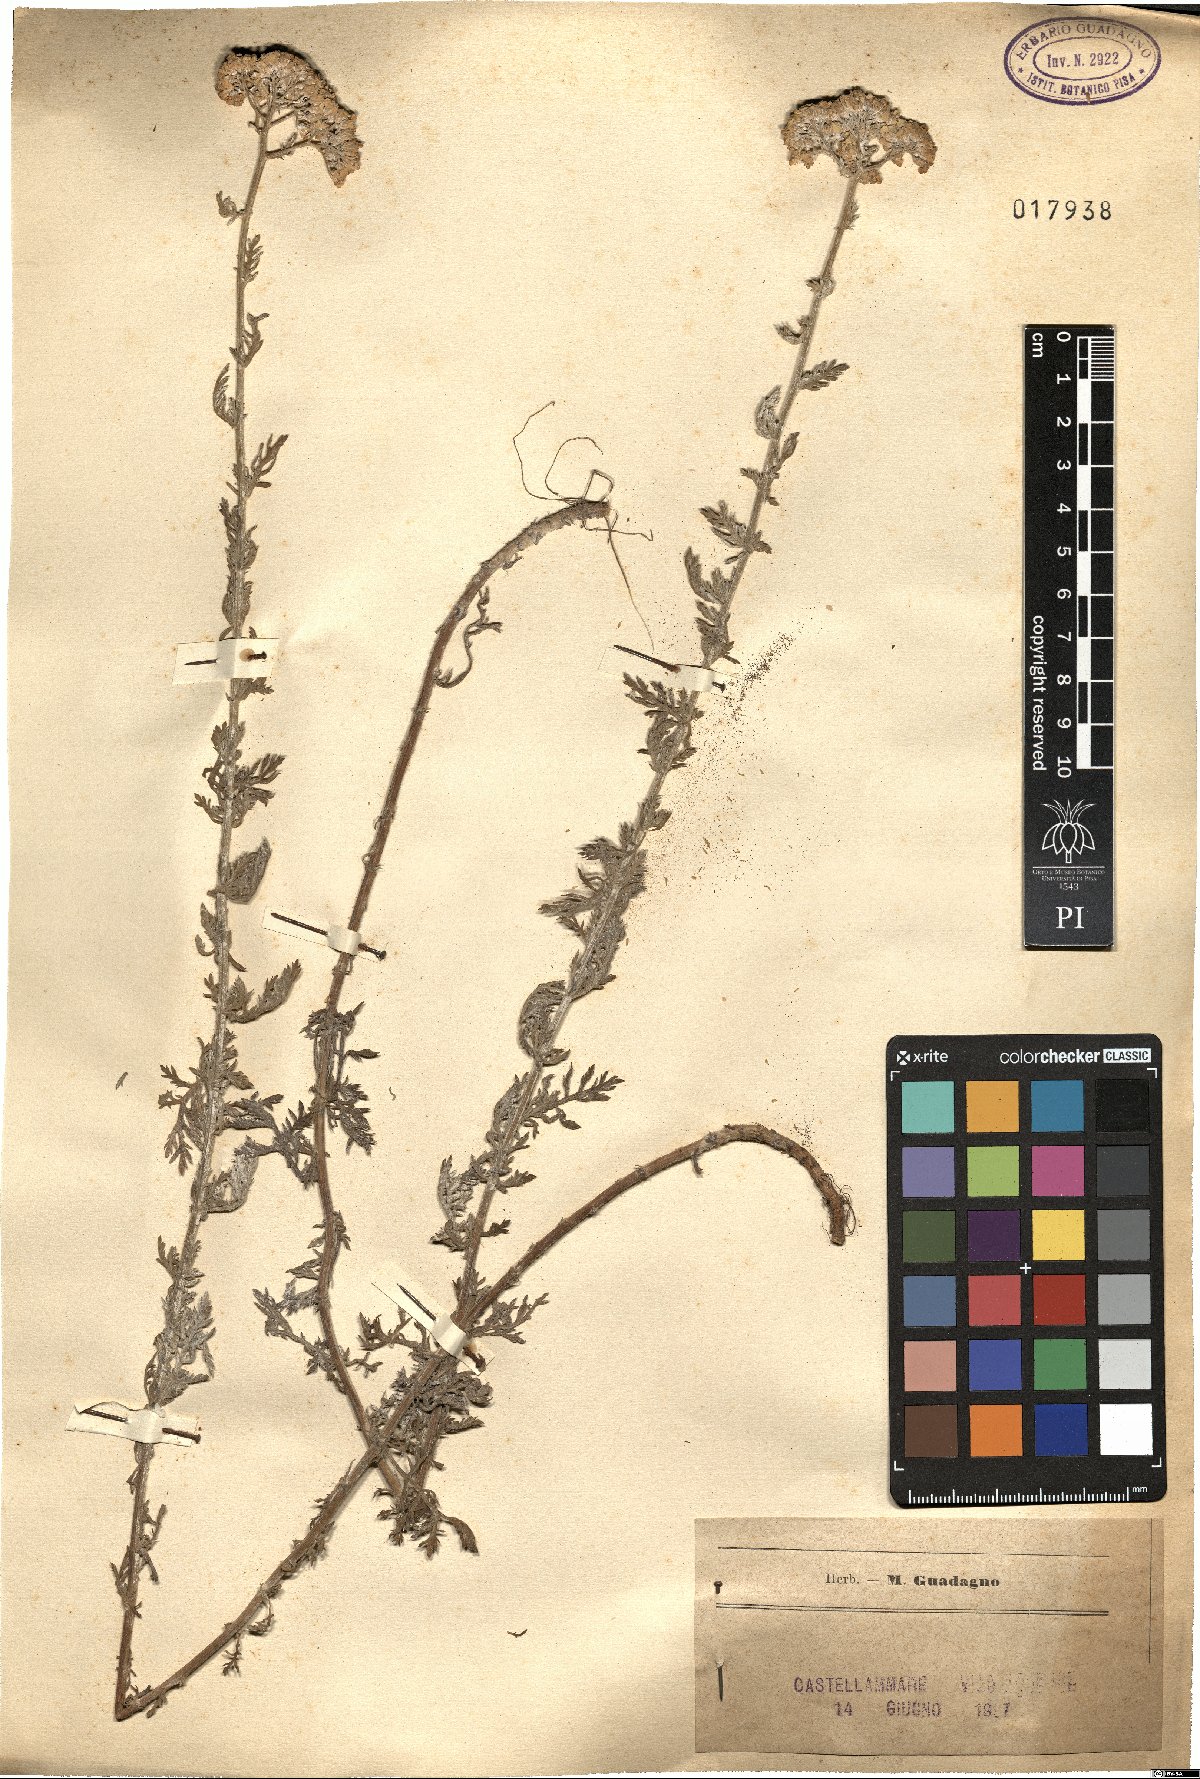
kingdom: Plantae
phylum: Tracheophyta
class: Magnoliopsida
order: Asterales
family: Asteraceae
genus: Achillea
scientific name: Achillea
